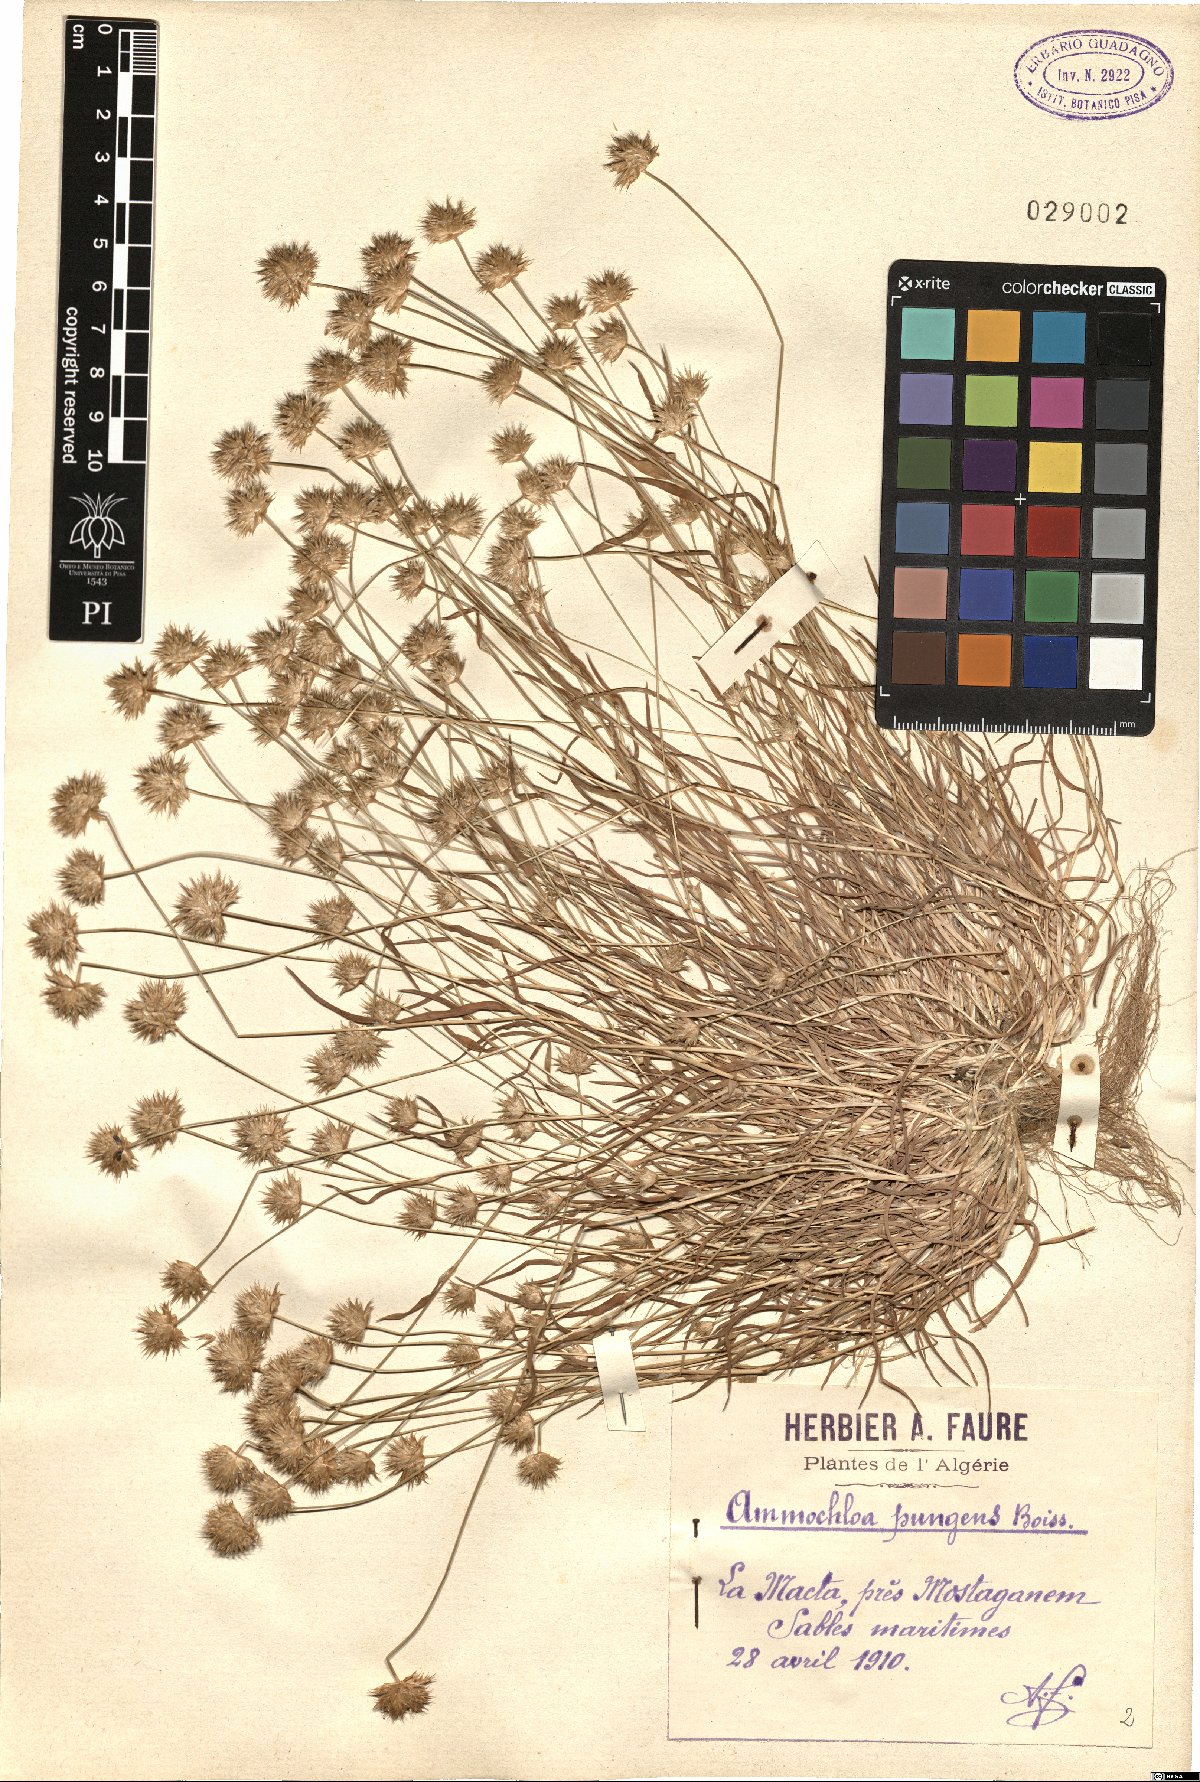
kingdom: Plantae
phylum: Tracheophyta
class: Liliopsida
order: Poales
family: Poaceae
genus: Ammochloa
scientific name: Ammochloa pungens
